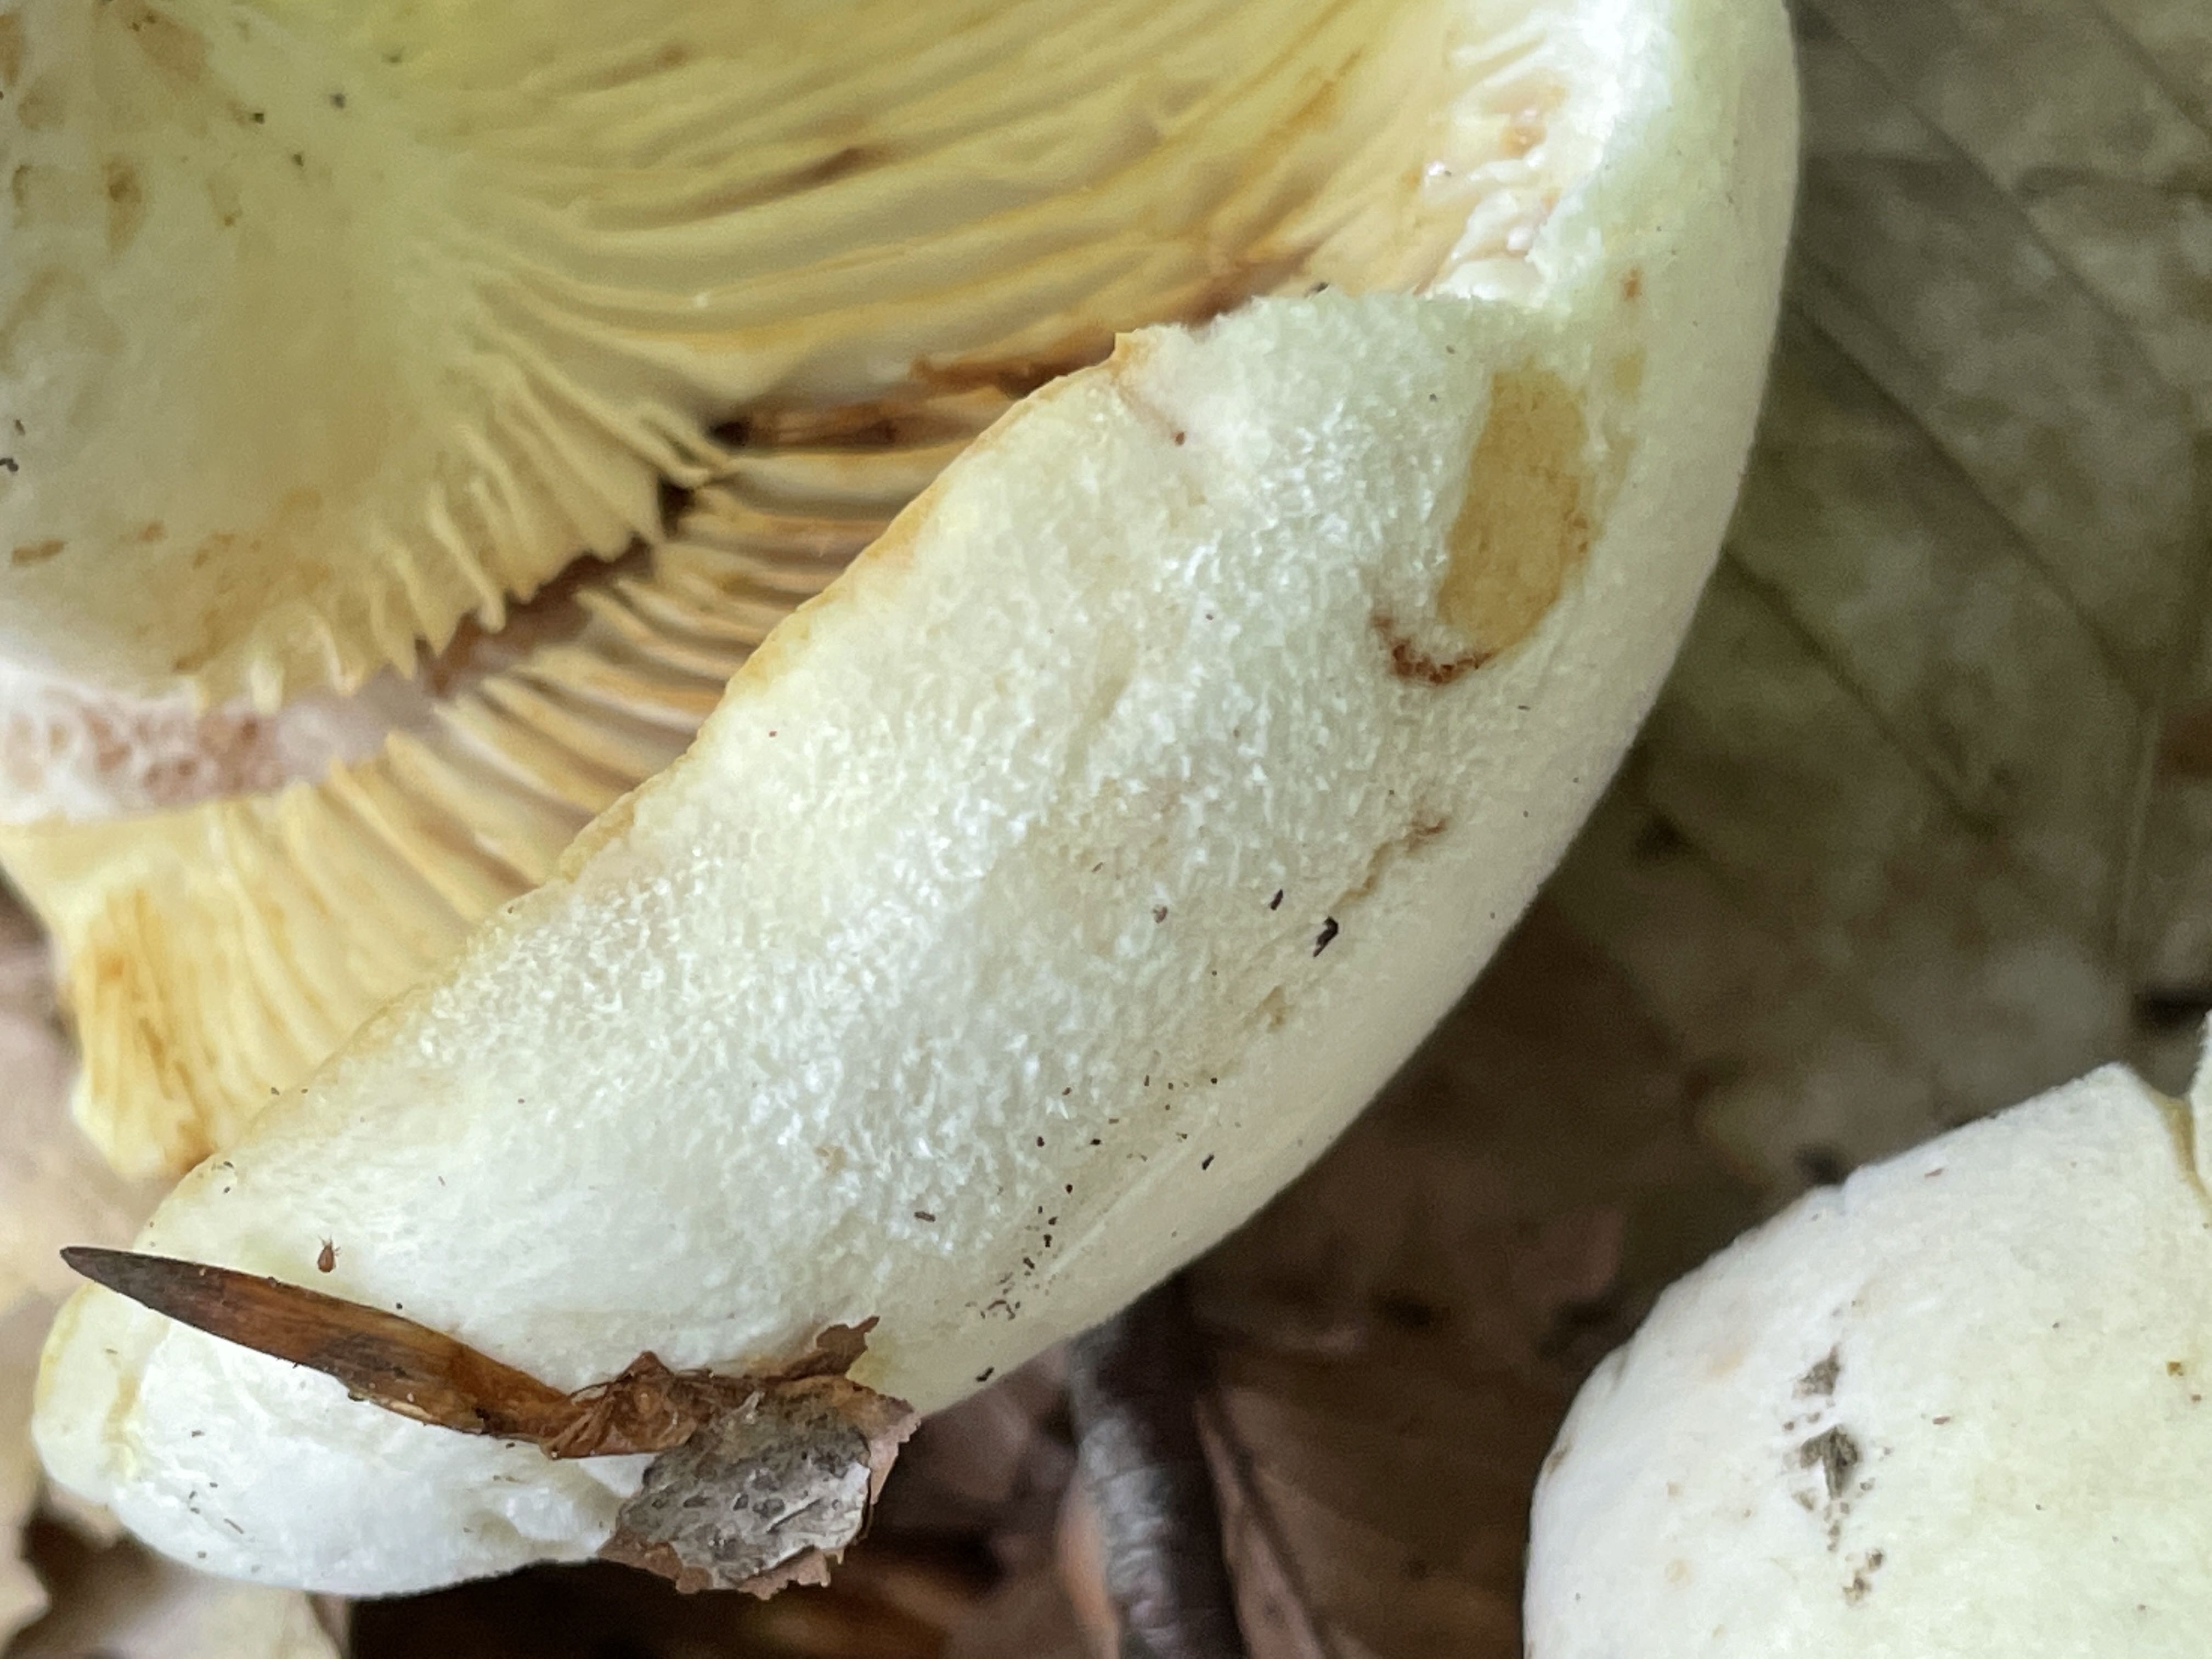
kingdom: Fungi
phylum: Basidiomycota
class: Agaricomycetes
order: Russulales
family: Russulaceae
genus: Lactifluus
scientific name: Lactifluus vellereus
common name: hvidfiltet mælkehat
